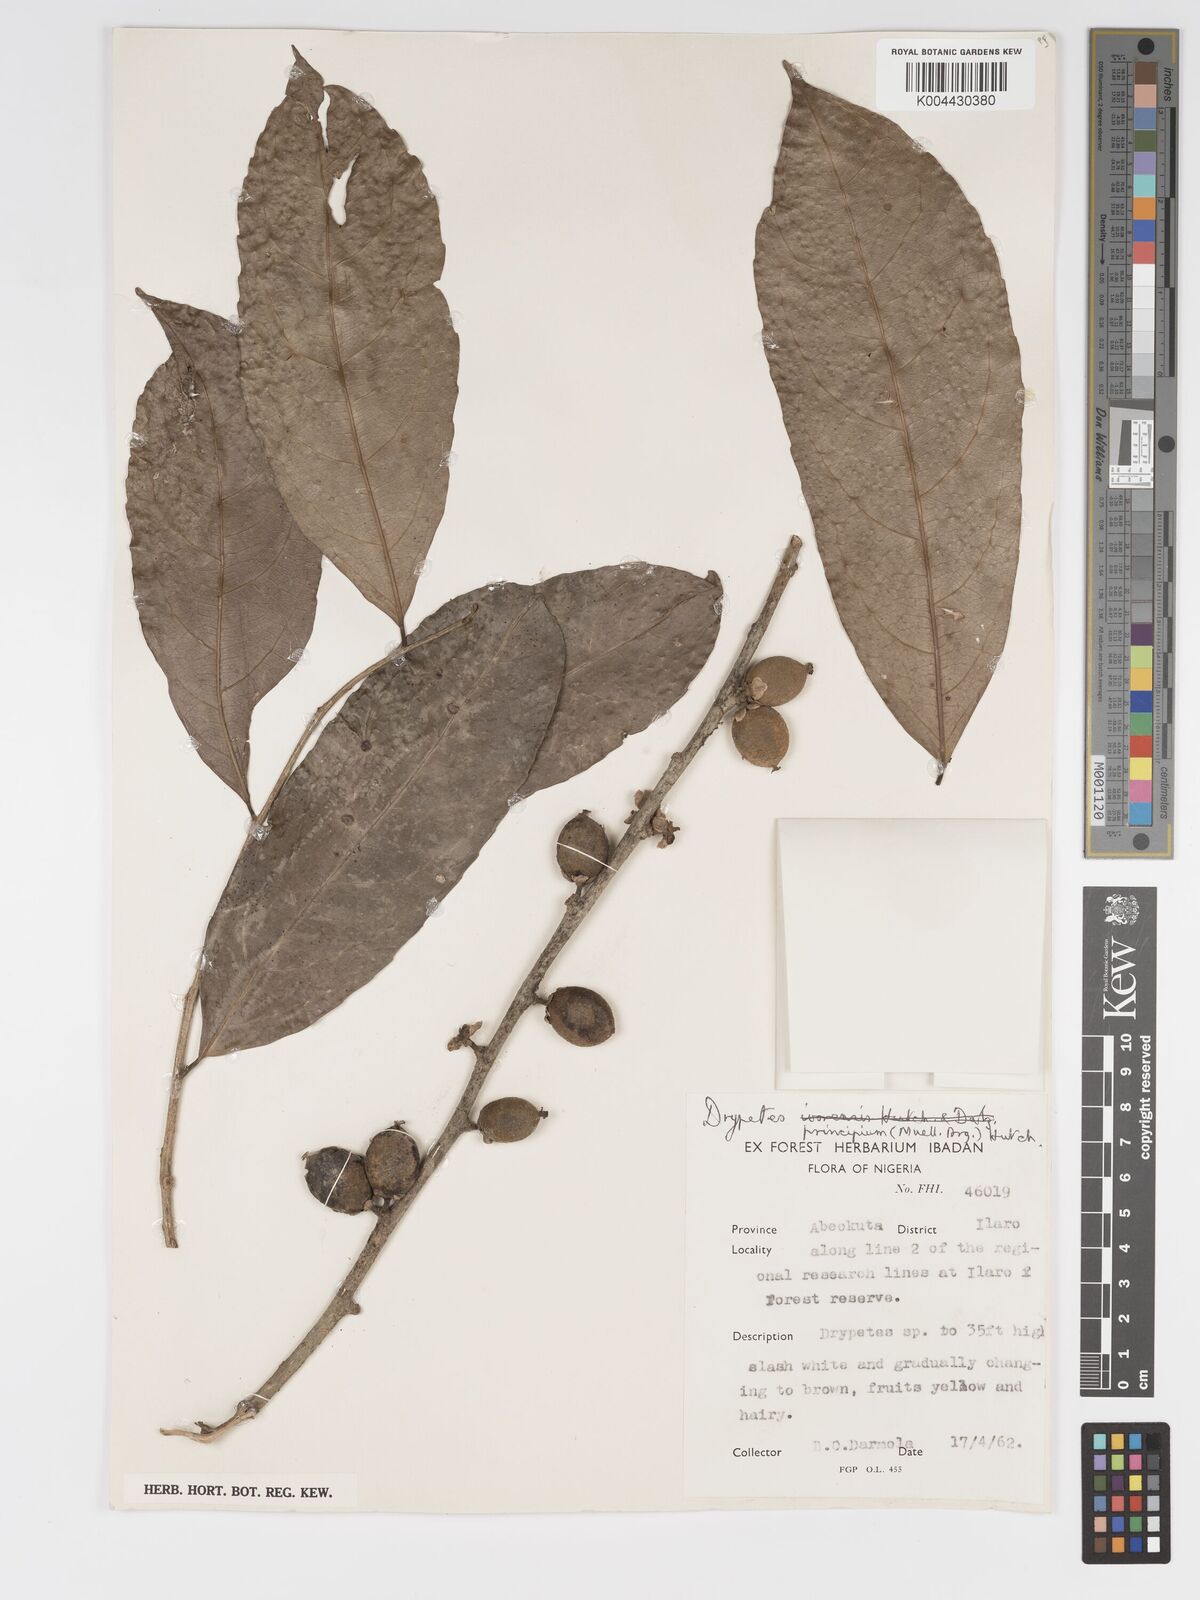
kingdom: Plantae
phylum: Tracheophyta
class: Magnoliopsida
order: Malpighiales
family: Putranjivaceae
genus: Drypetes
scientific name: Drypetes principum
